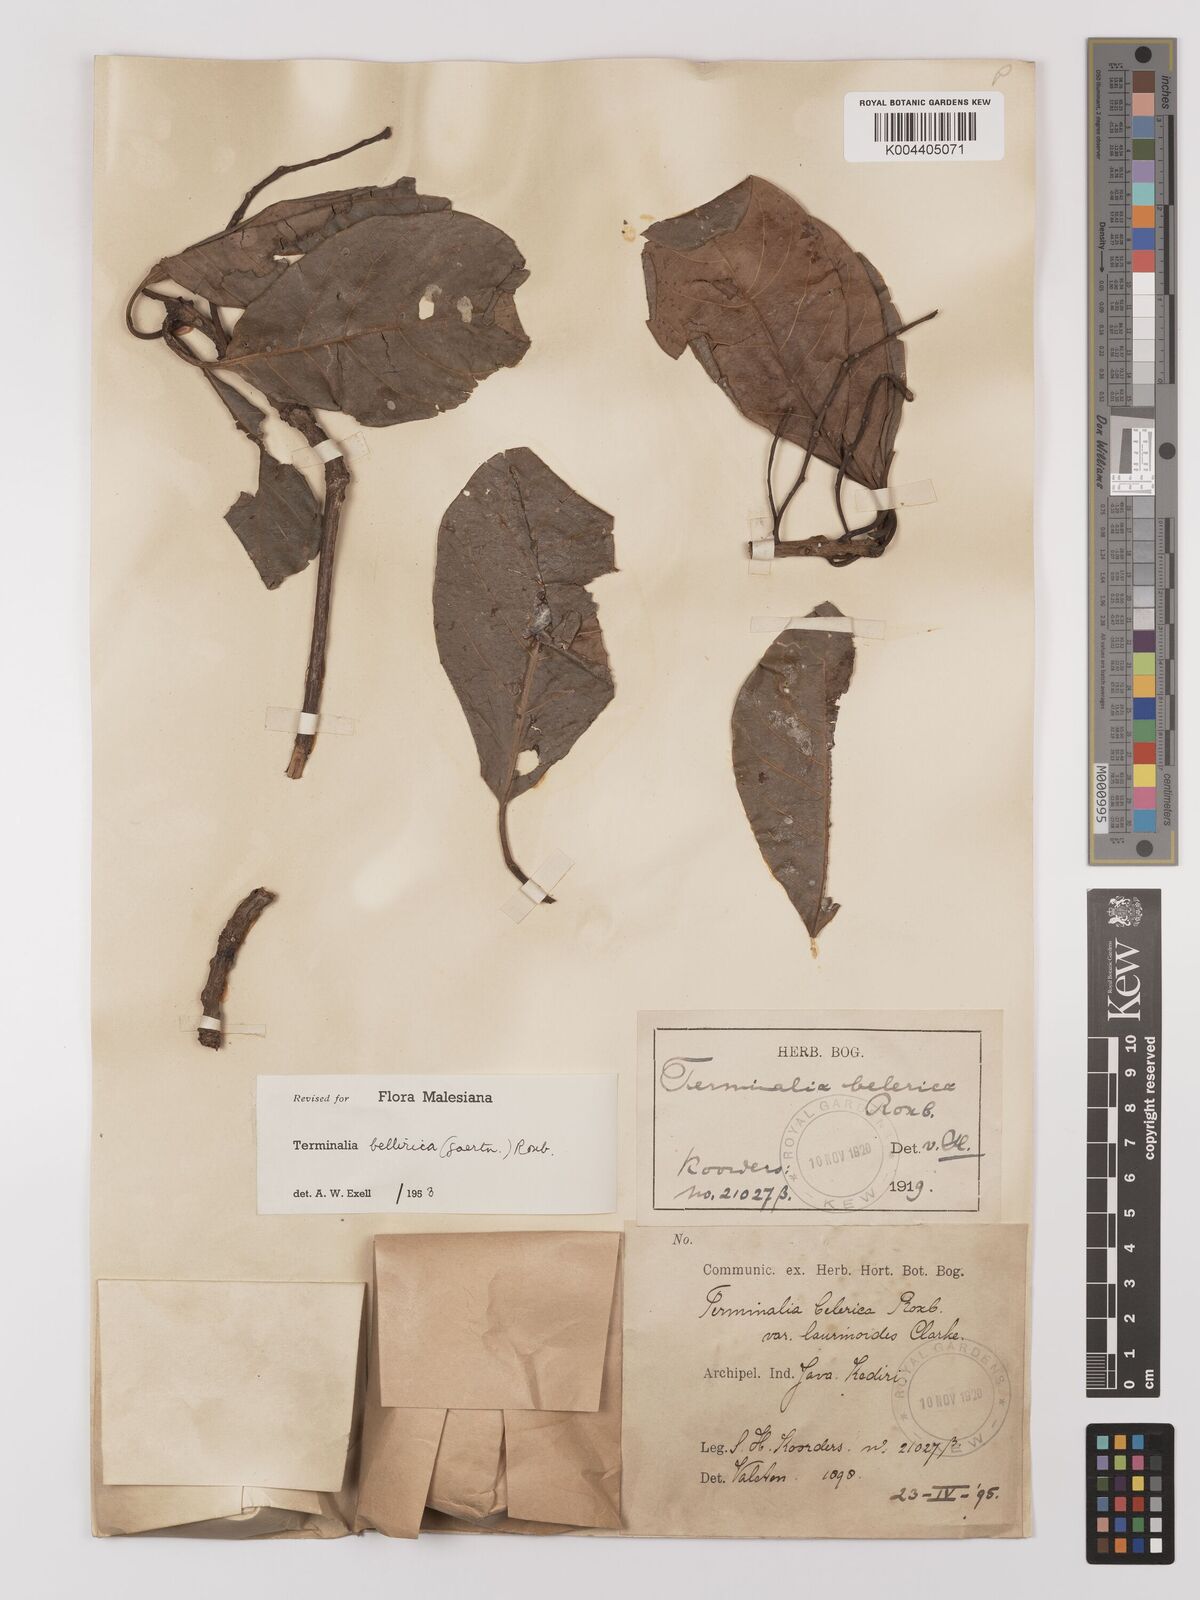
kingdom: Plantae
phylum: Tracheophyta
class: Magnoliopsida
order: Myrtales
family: Combretaceae
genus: Terminalia
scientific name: Terminalia bellirica
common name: Beleric myrobalan
